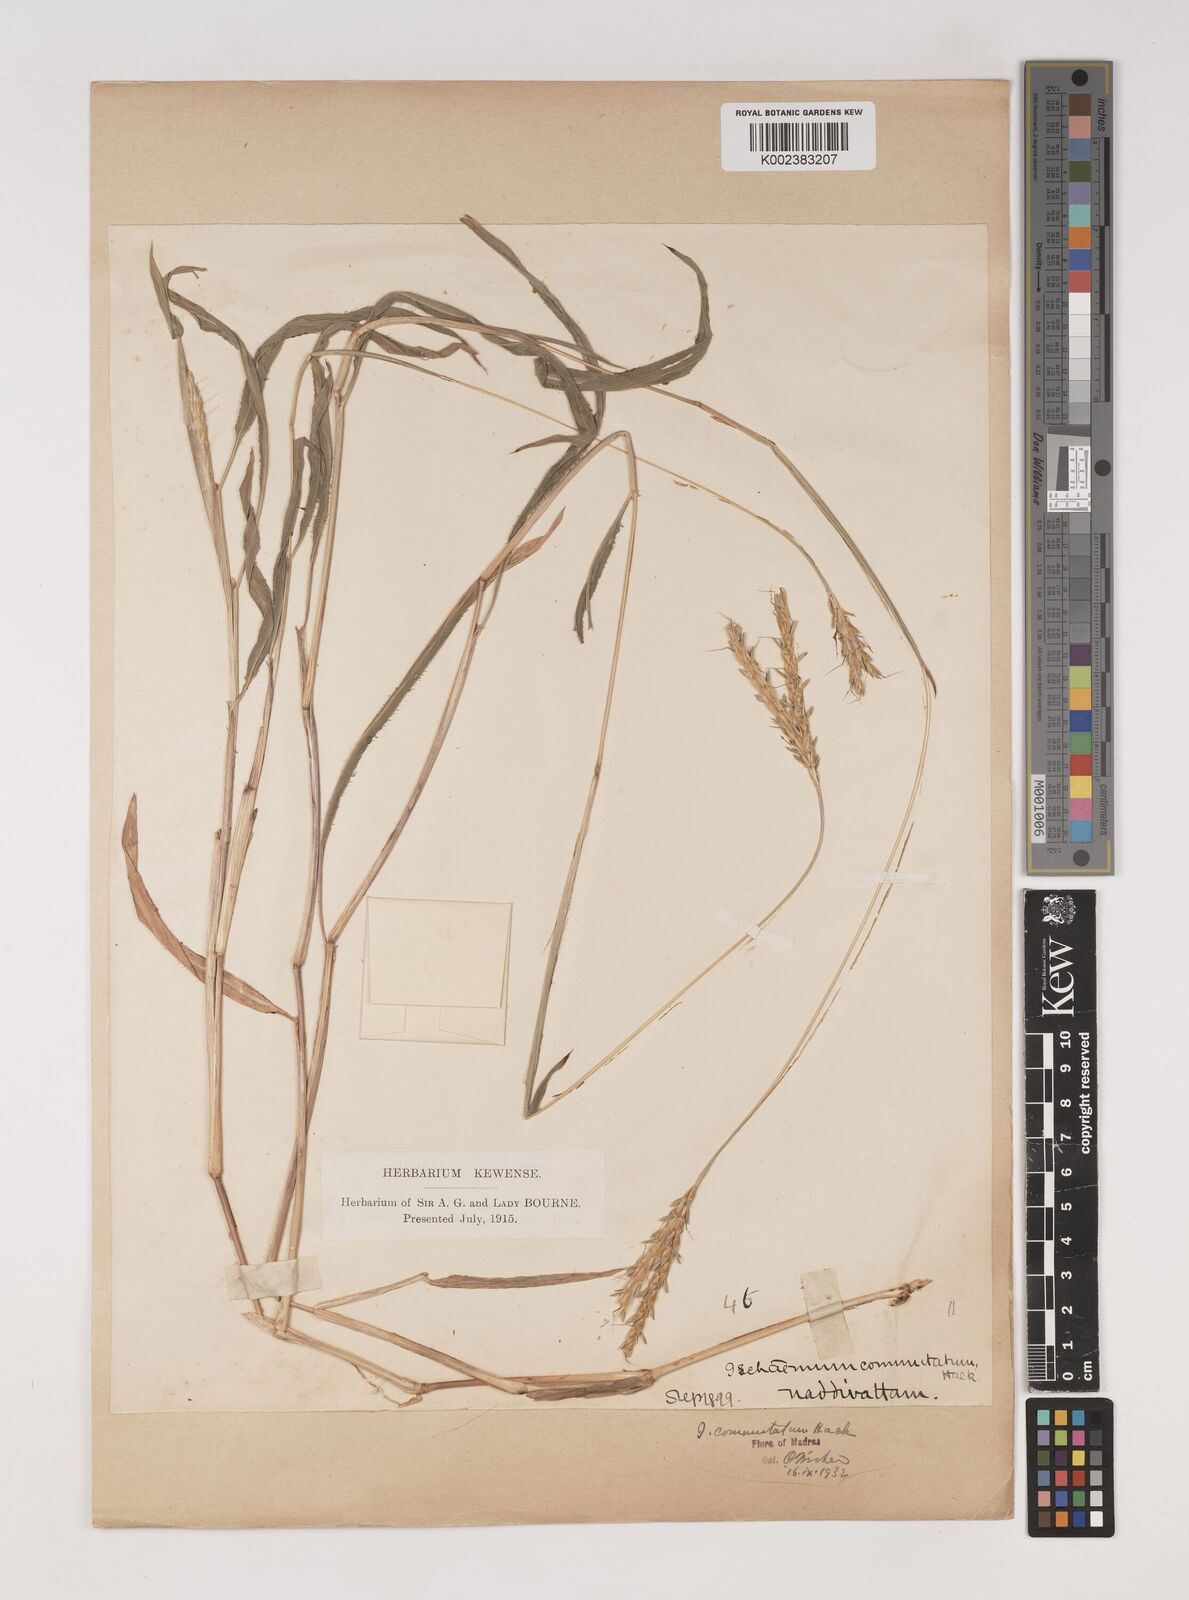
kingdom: Plantae
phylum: Tracheophyta
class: Liliopsida
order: Poales
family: Poaceae
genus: Ischaemum
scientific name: Ischaemum commutatum
